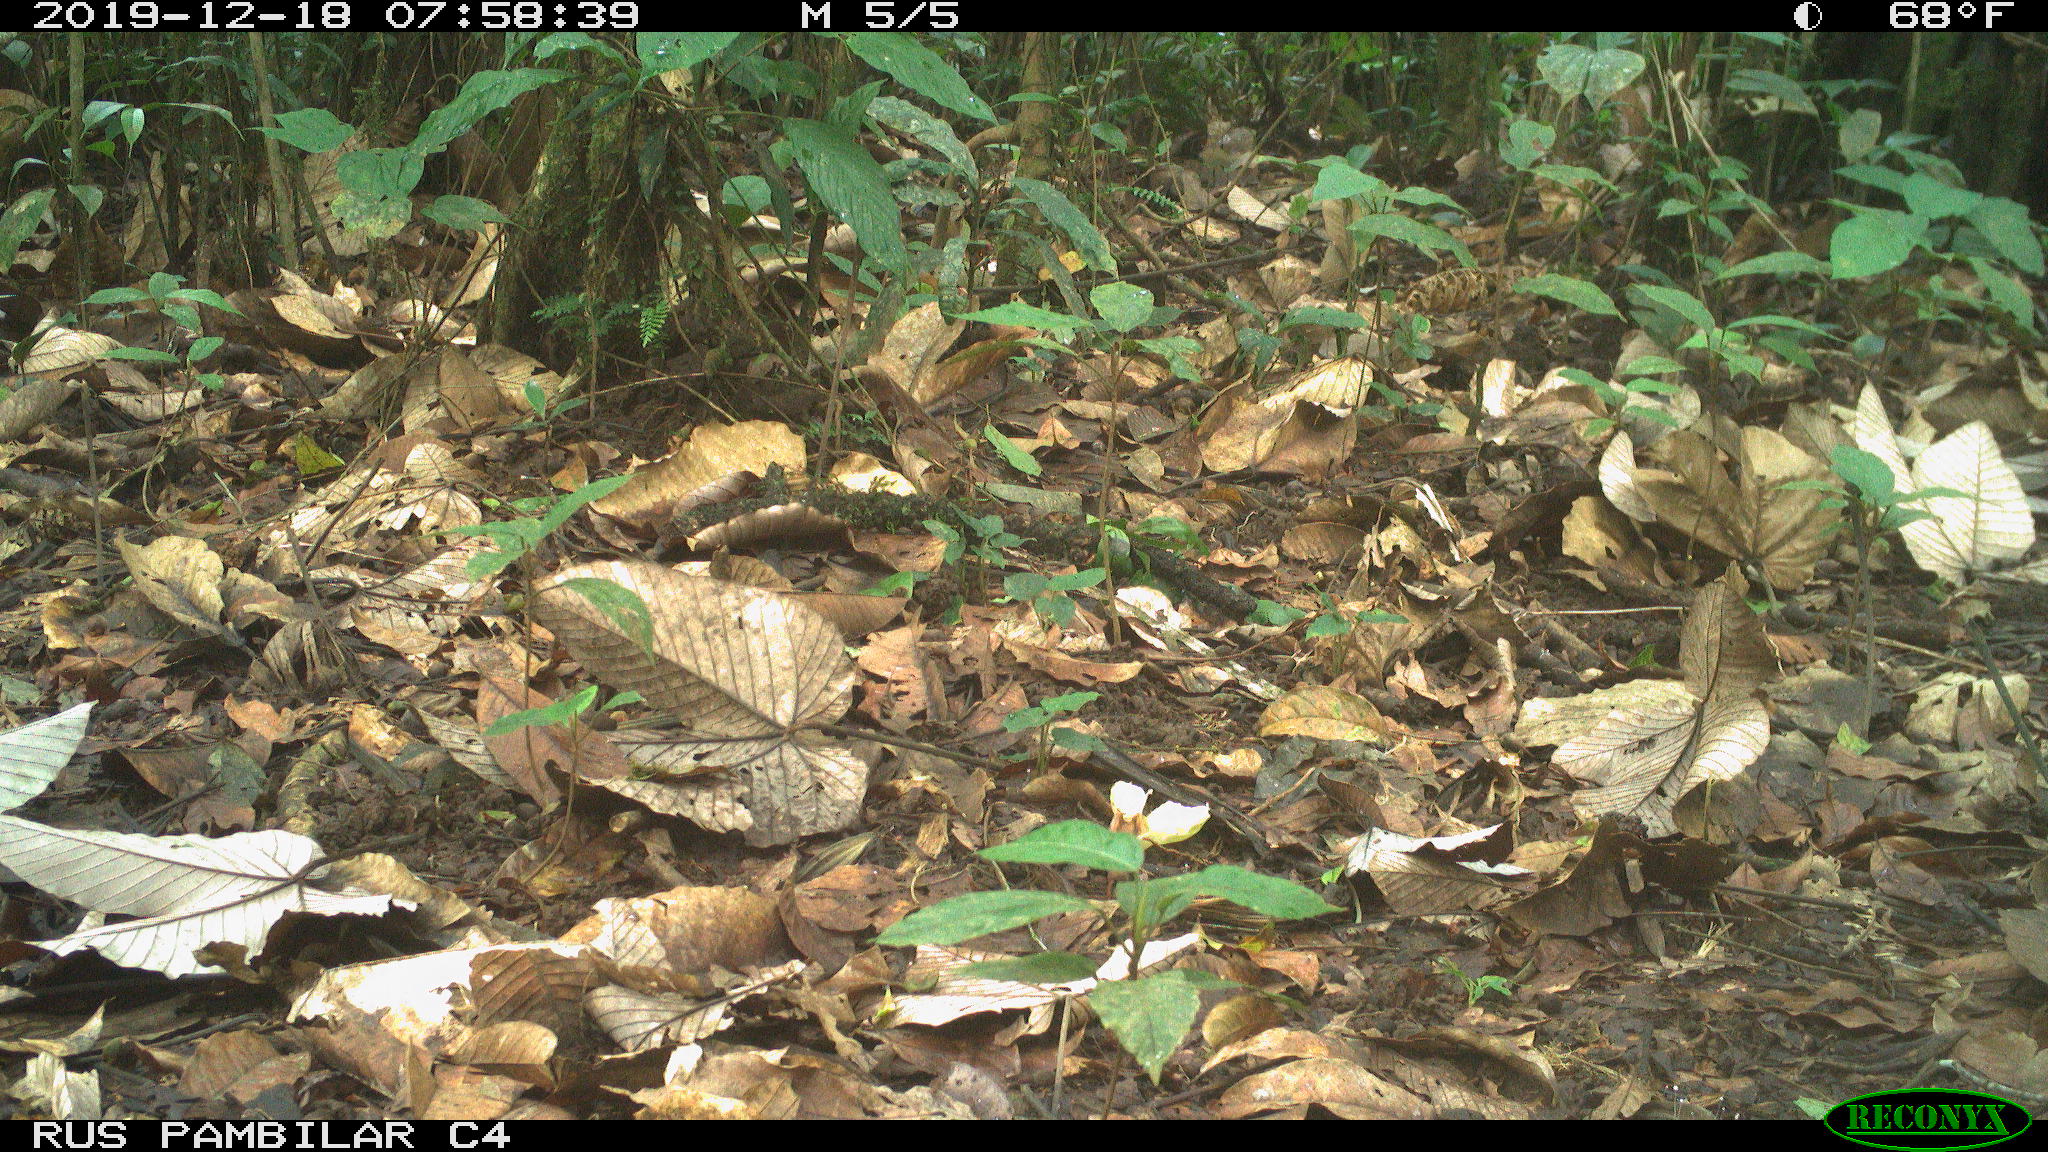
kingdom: Animalia
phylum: Chordata
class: Mammalia
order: Rodentia
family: Dasyproctidae
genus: Dasyprocta
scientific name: Dasyprocta punctata
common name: Central american agouti
